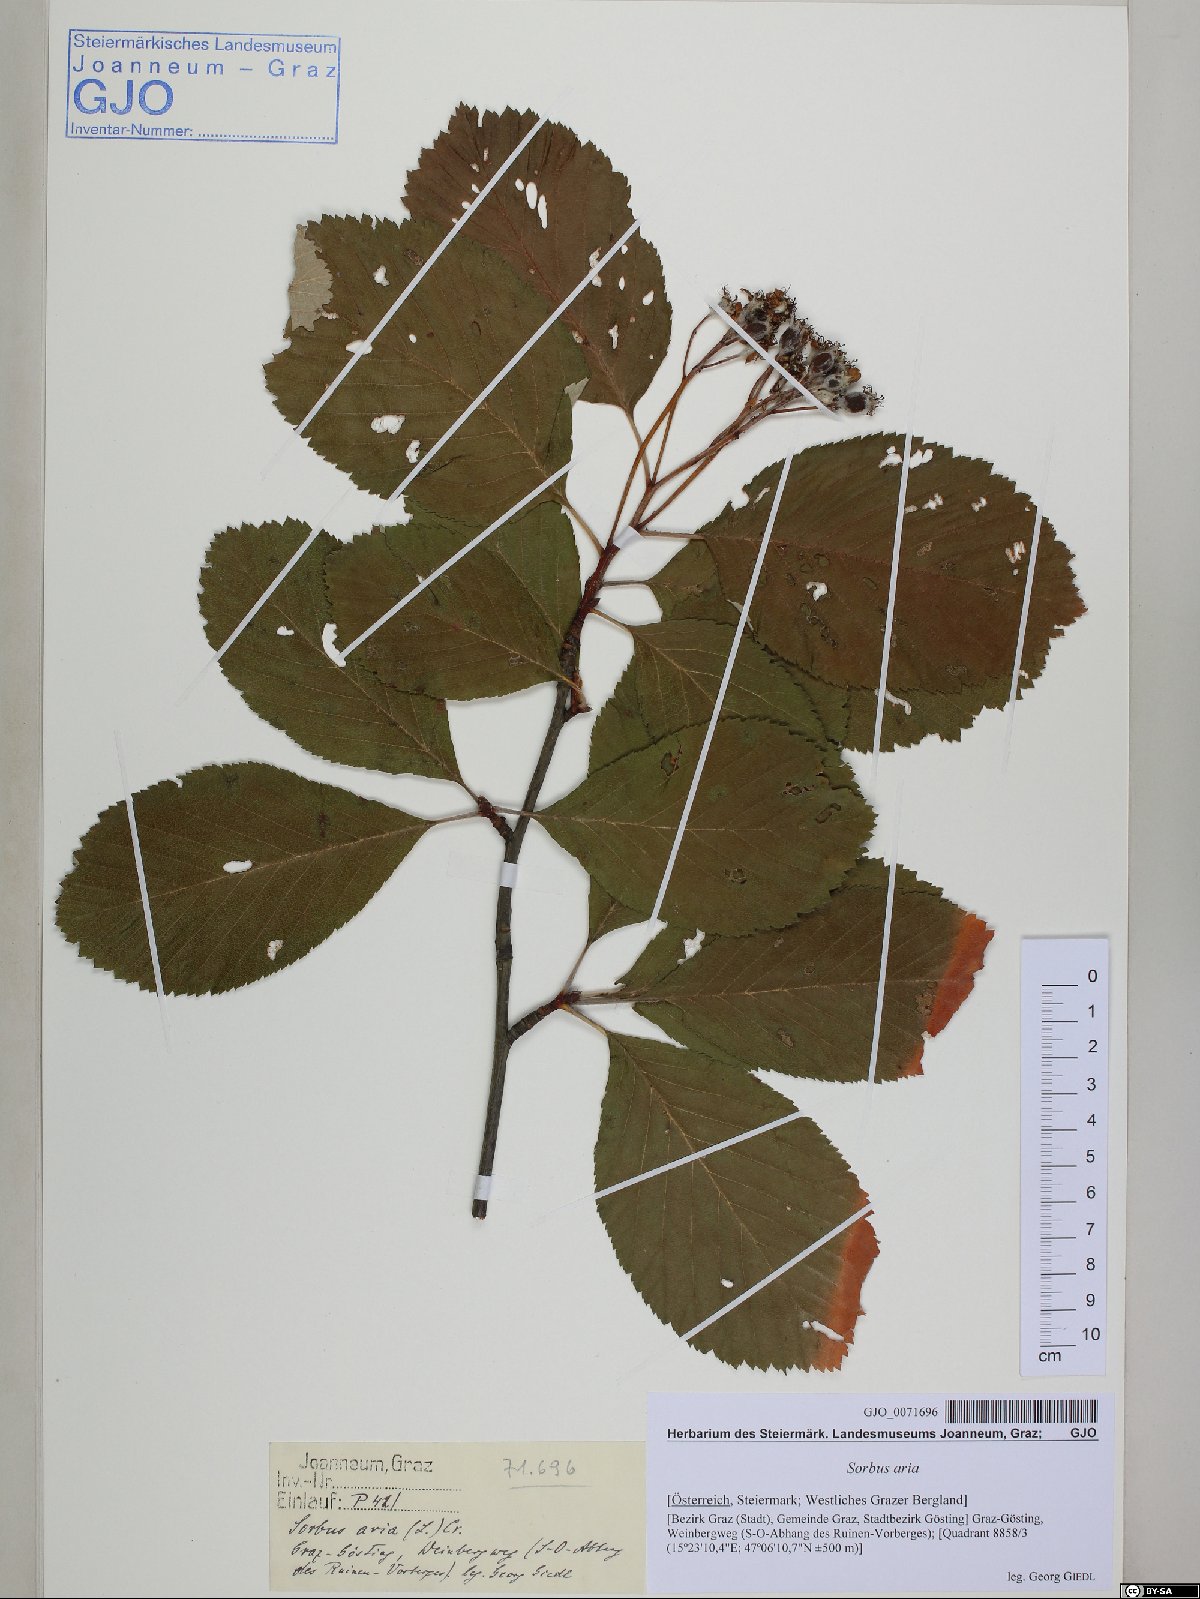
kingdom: Plantae
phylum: Tracheophyta
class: Magnoliopsida
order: Rosales
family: Rosaceae
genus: Aria
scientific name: Aria edulis
